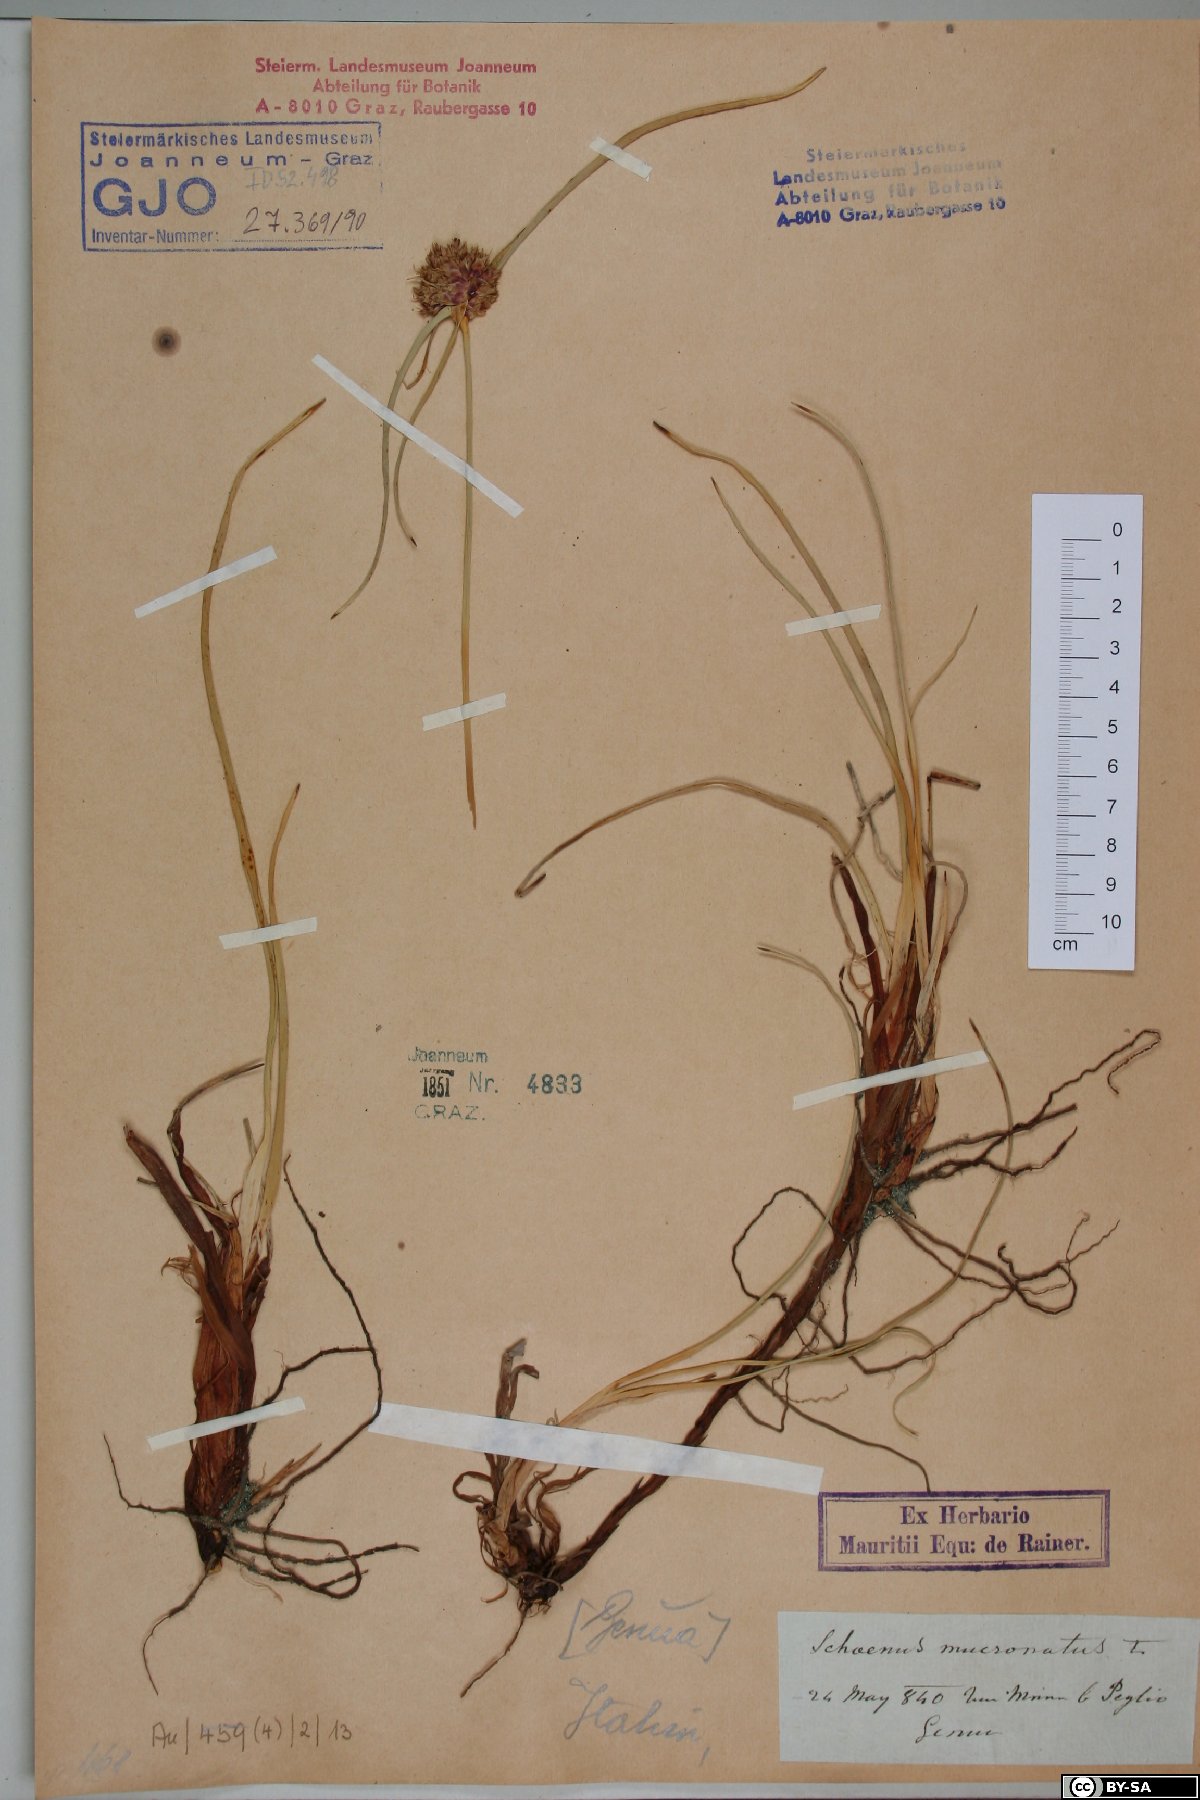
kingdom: Plantae
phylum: Tracheophyta
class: Liliopsida
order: Poales
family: Cyperaceae
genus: Cyperus
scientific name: Cyperus capitatus
